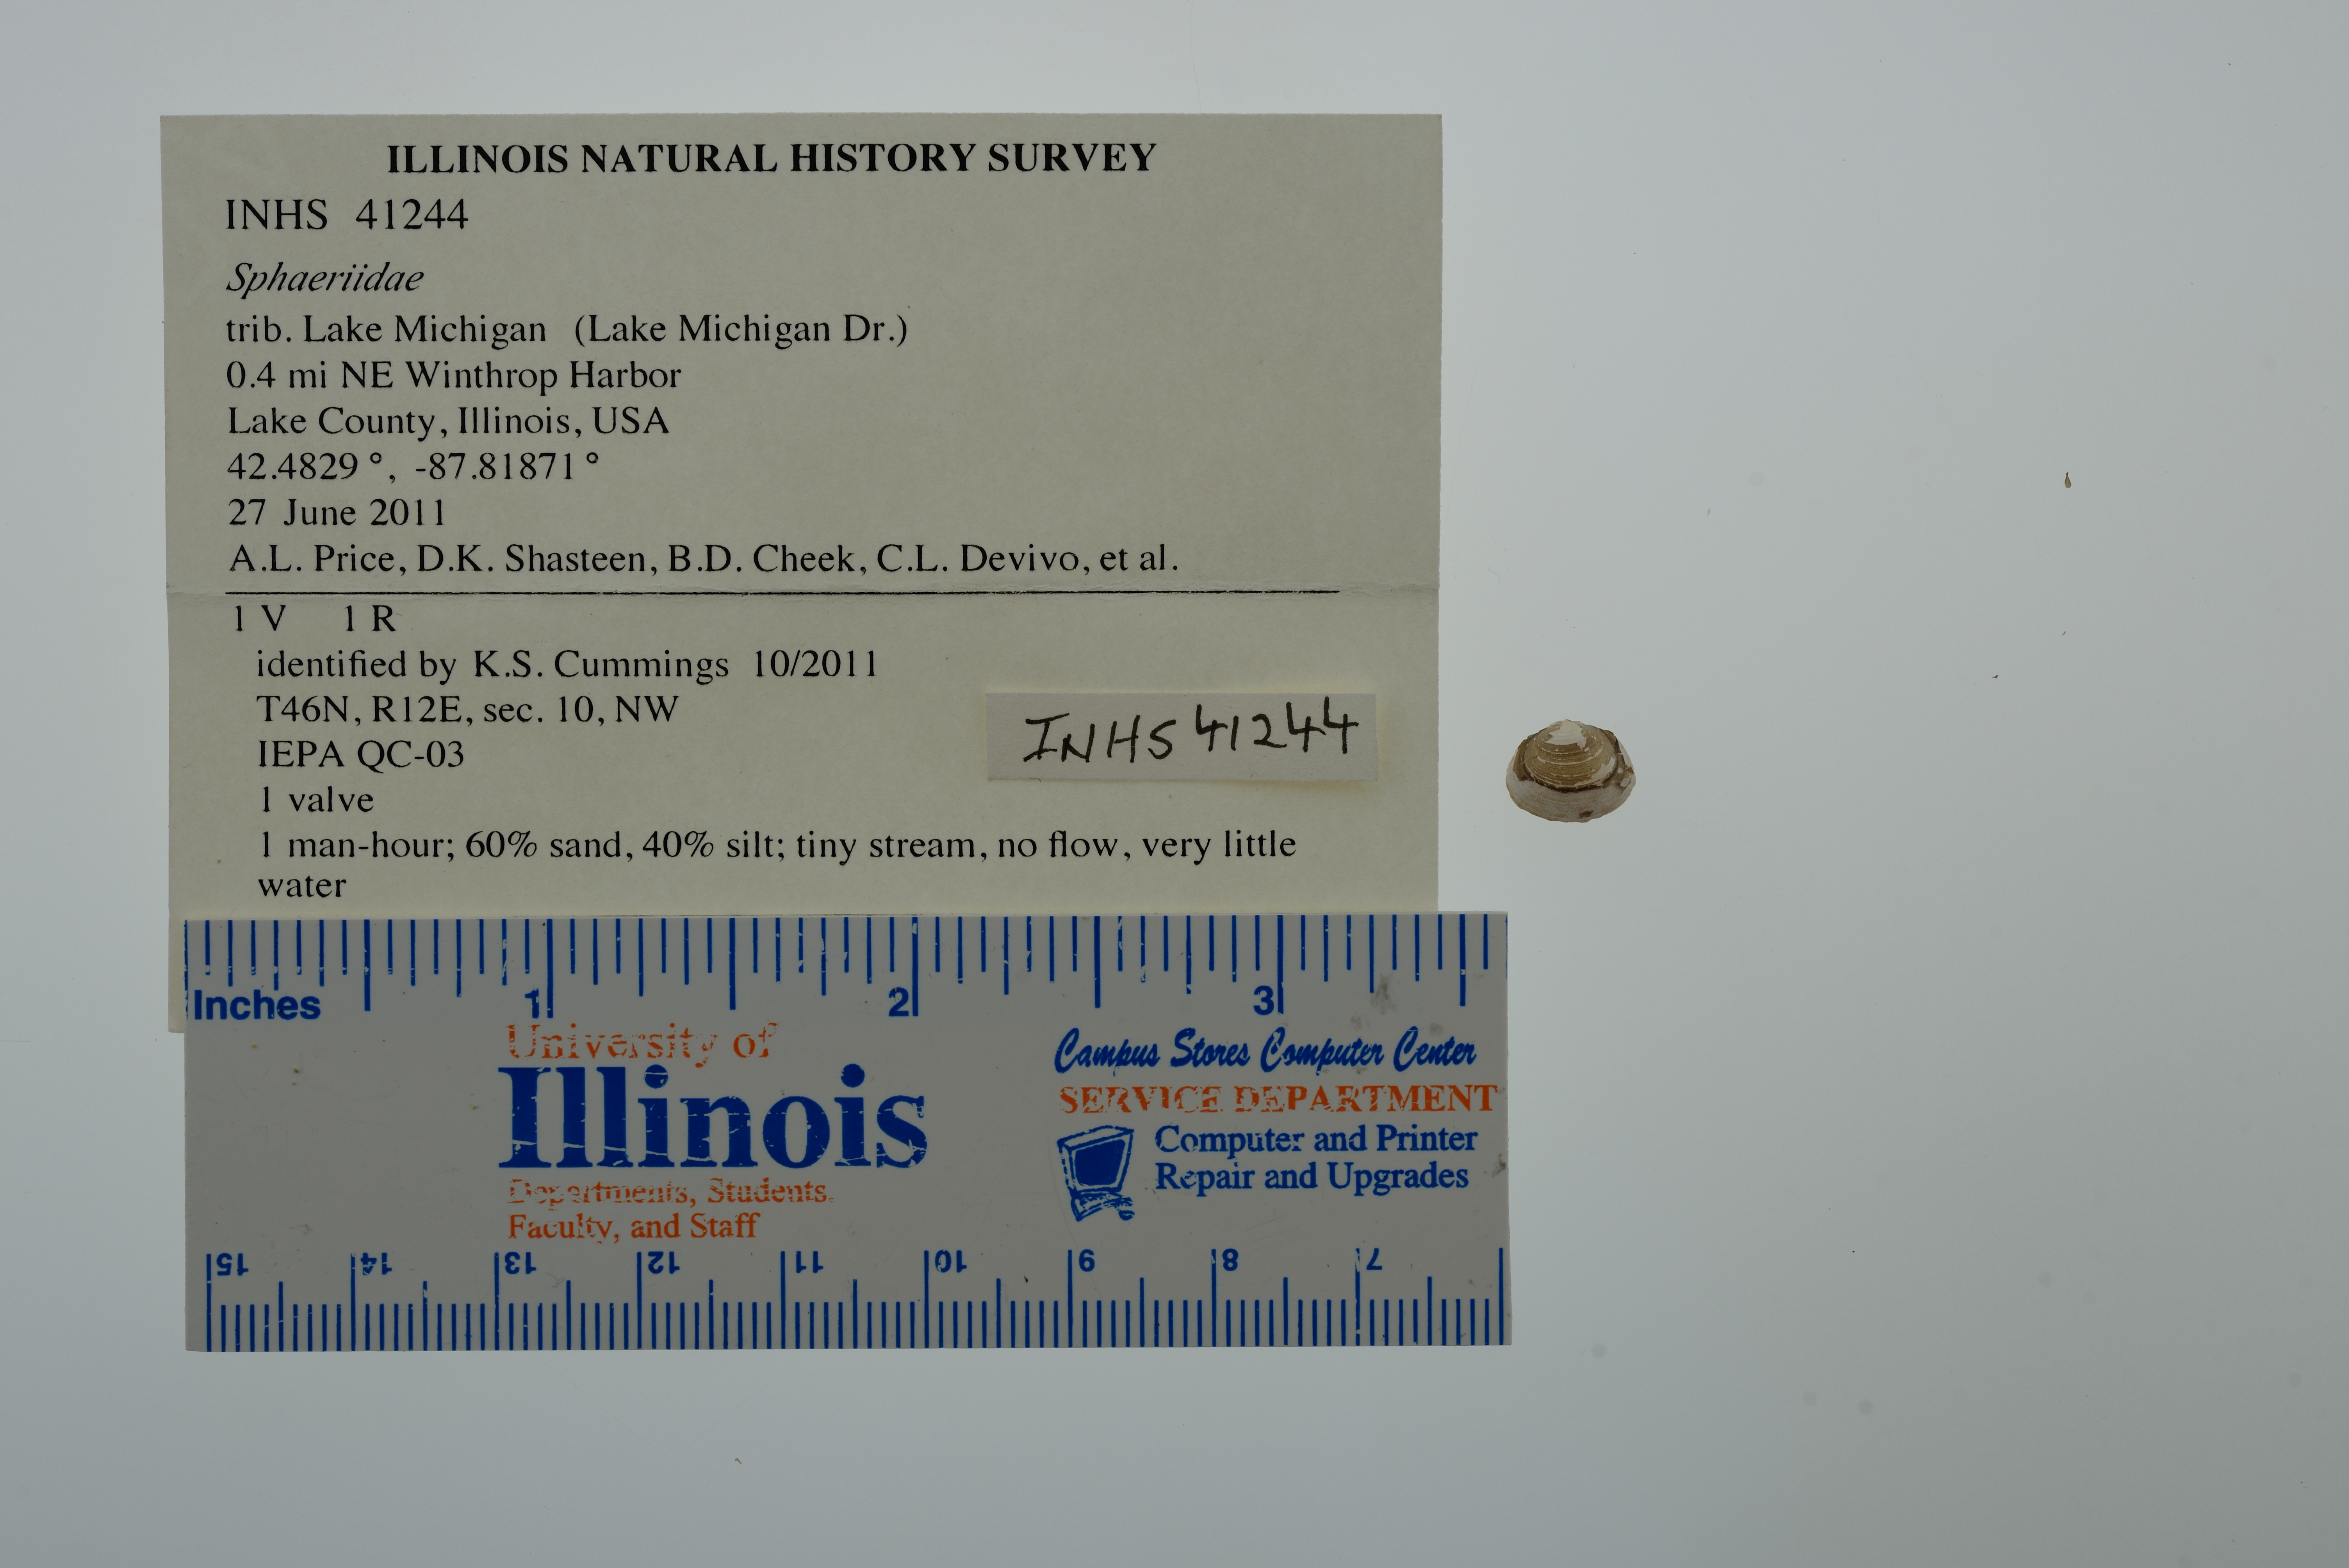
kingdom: Animalia
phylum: Mollusca
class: Bivalvia
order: Sphaeriida
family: Sphaeriidae
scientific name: Sphaeriidae
